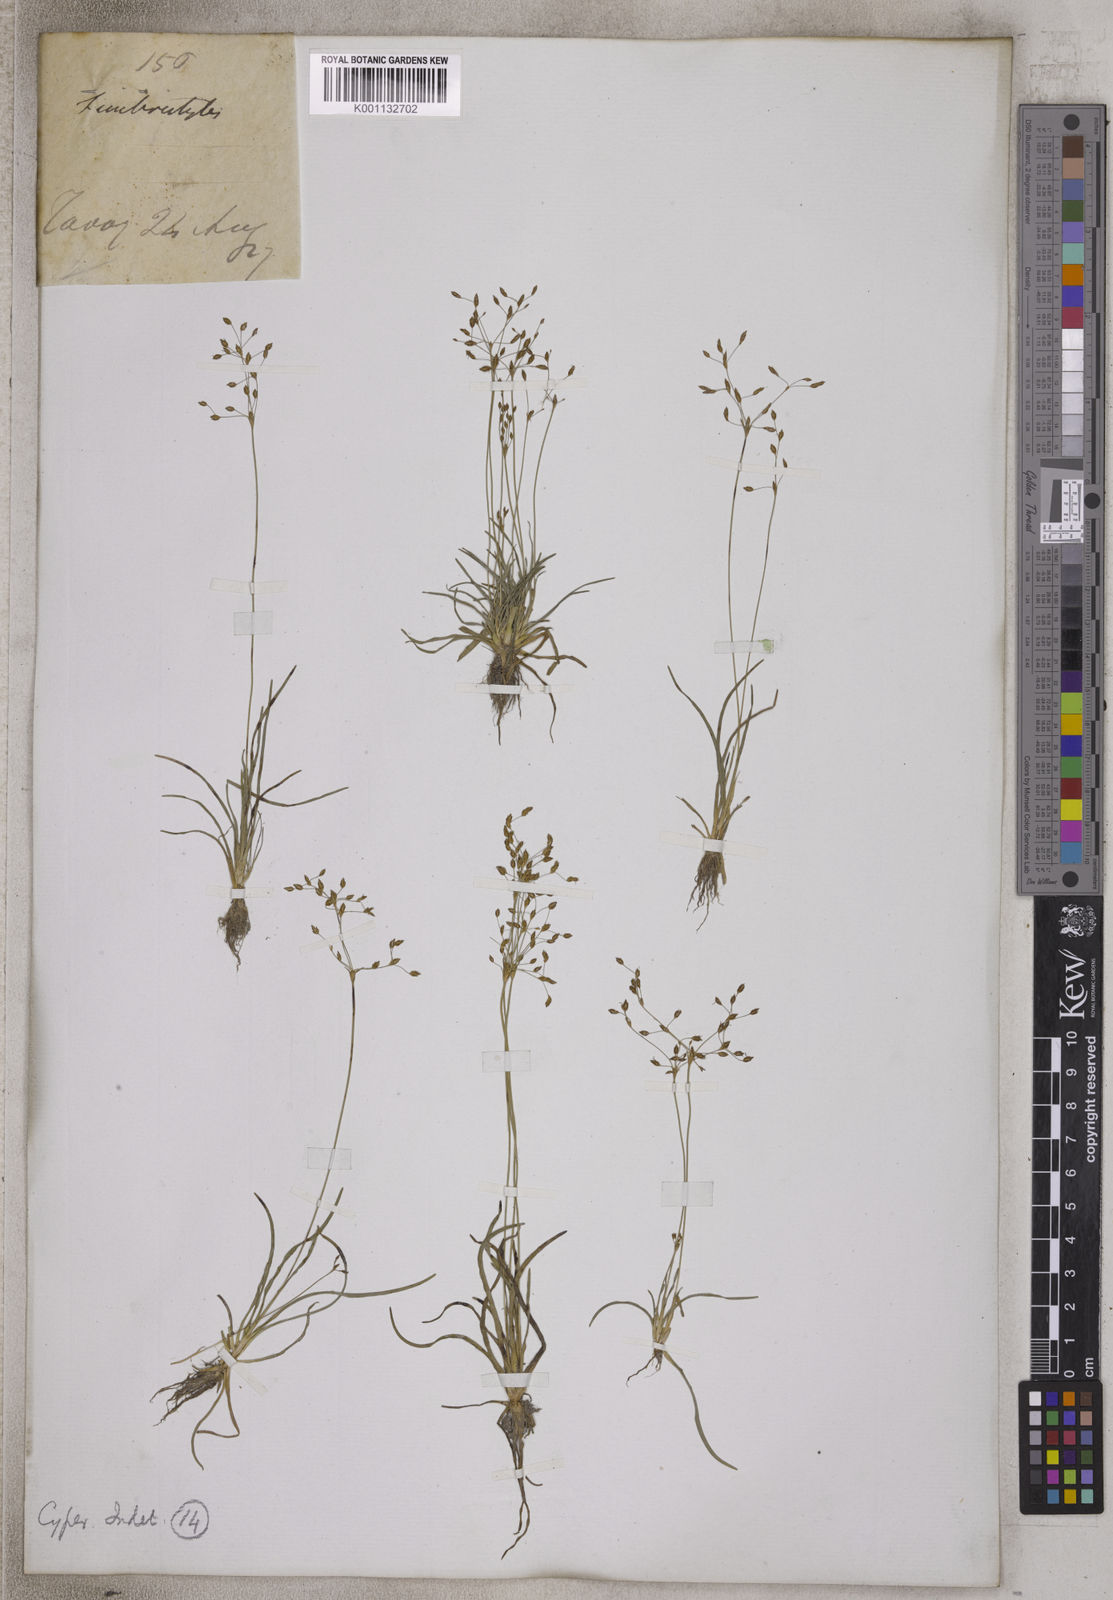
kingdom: Plantae
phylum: Tracheophyta
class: Liliopsida
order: Poales
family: Cyperaceae
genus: Fimbristylis
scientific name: Fimbristylis
